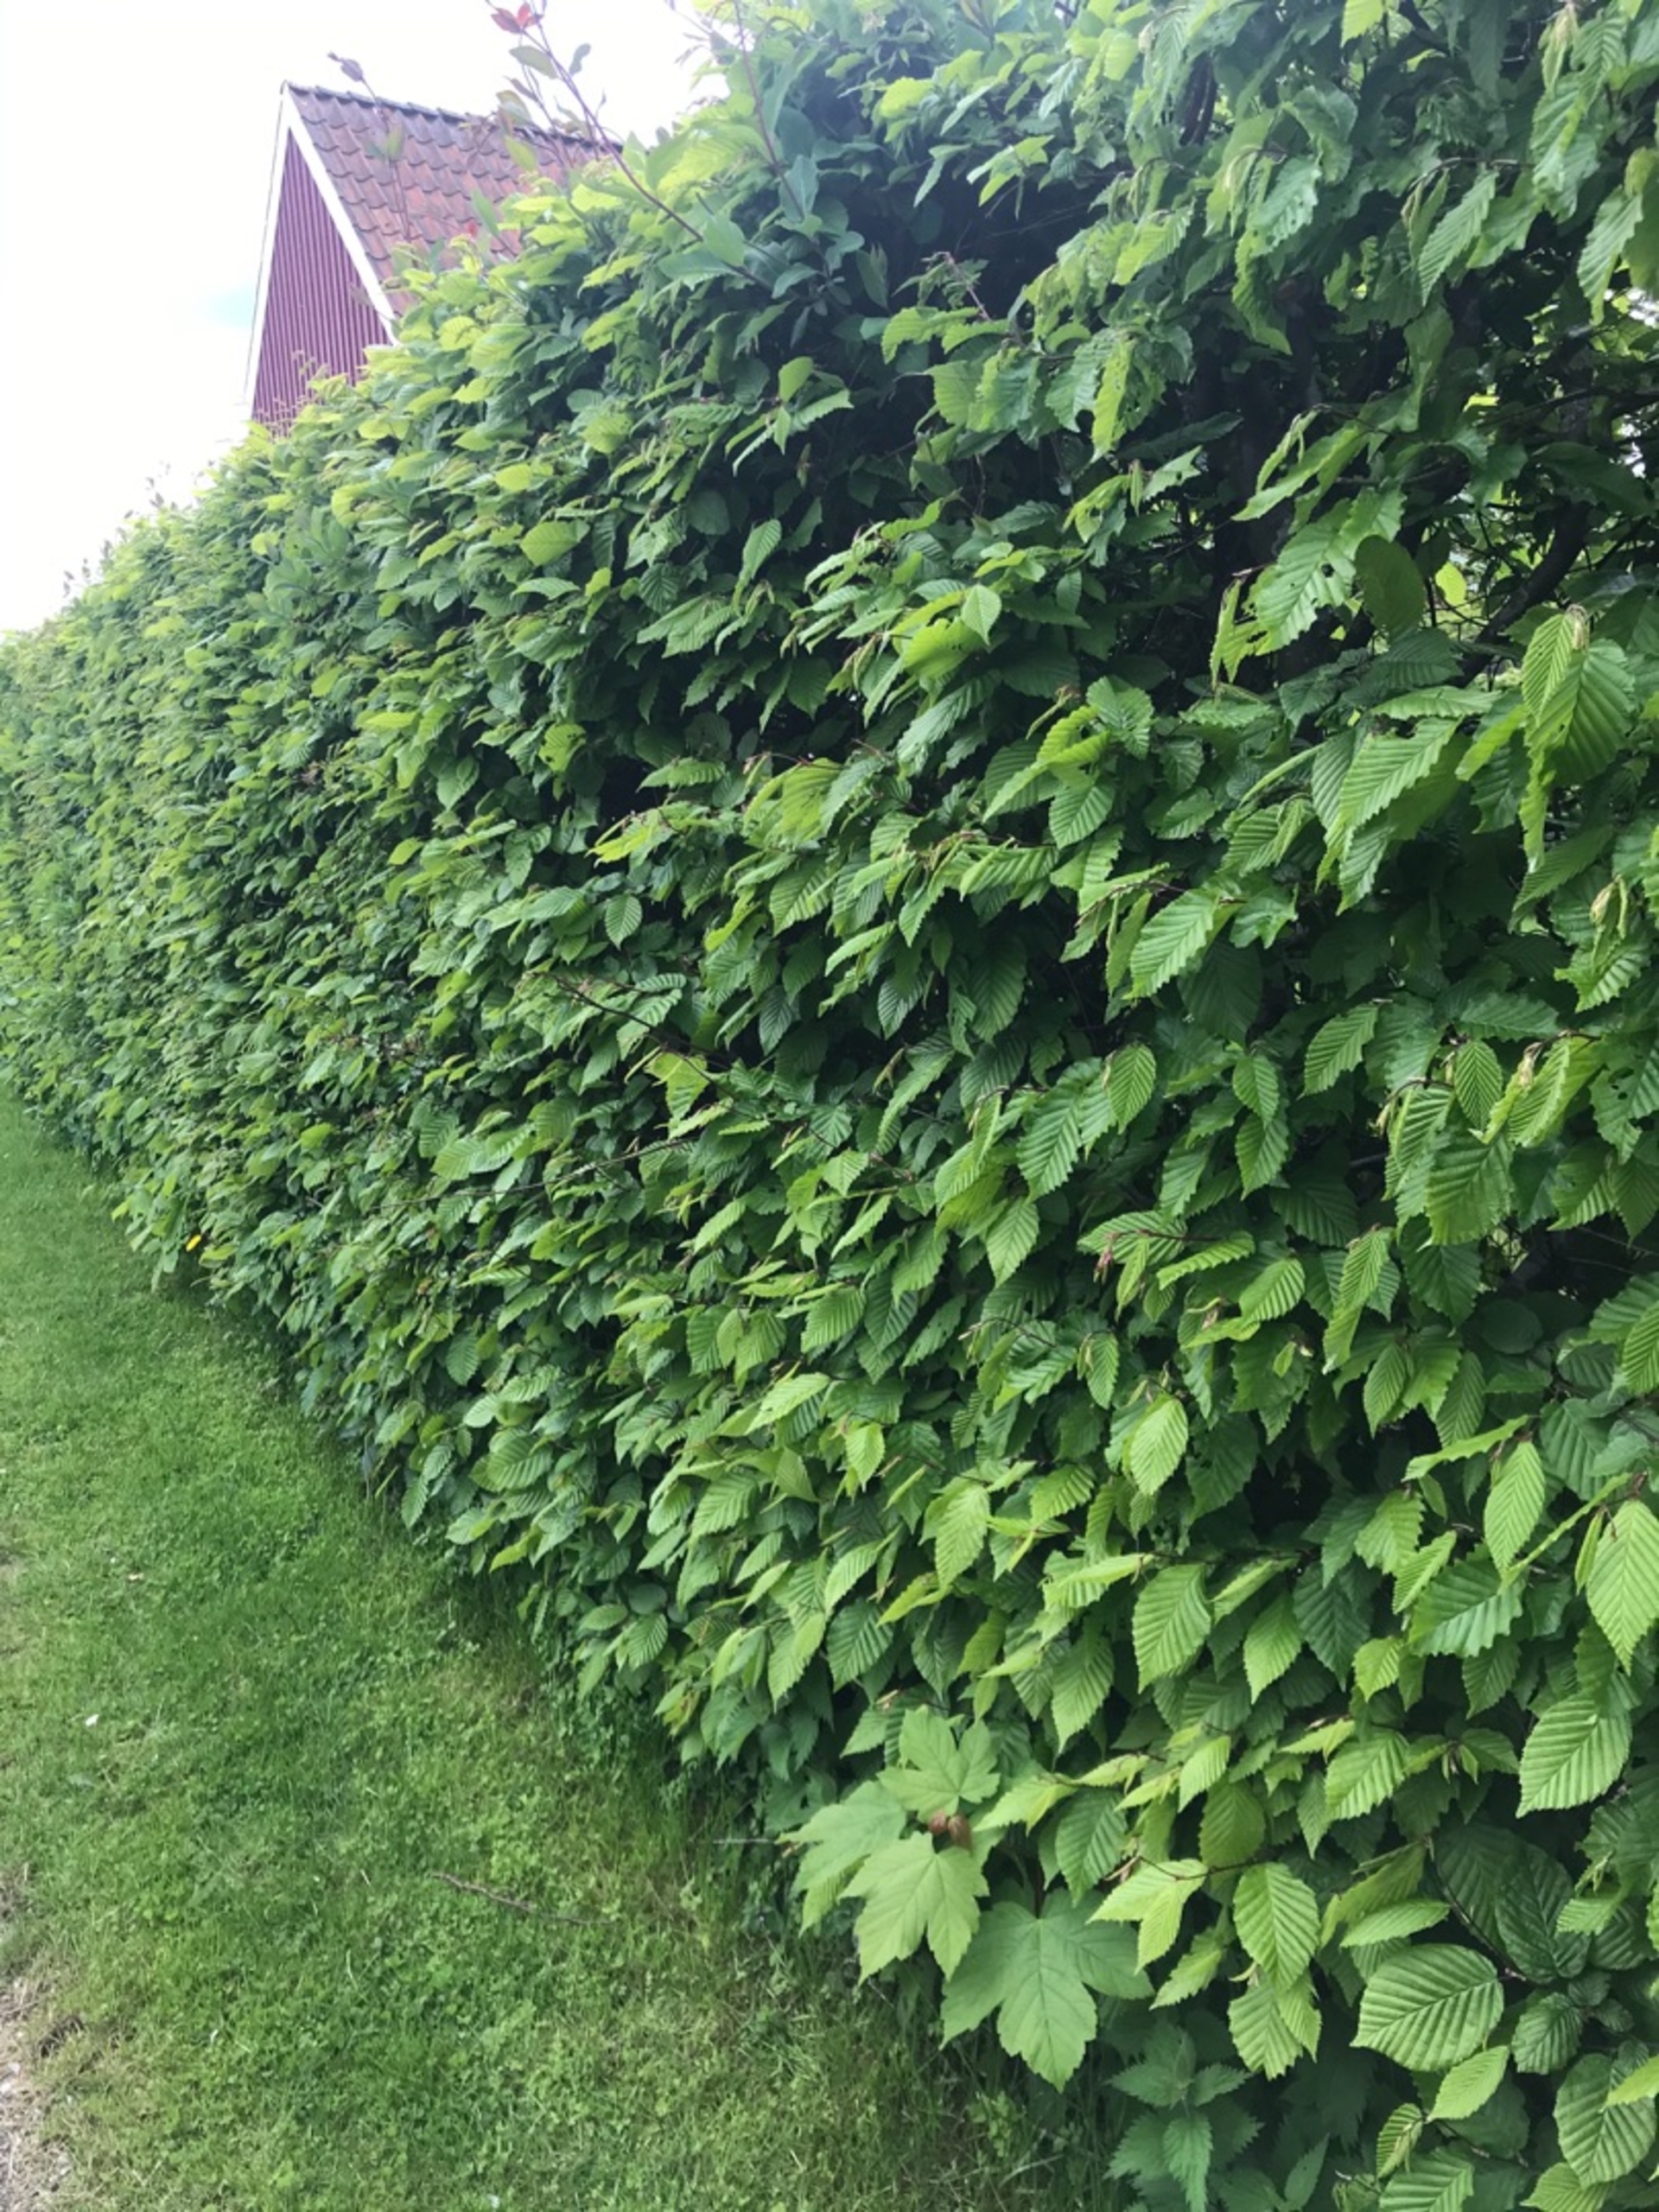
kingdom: Plantae
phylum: Tracheophyta
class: Magnoliopsida
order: Fagales
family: Betulaceae
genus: Carpinus
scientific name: Carpinus betulus
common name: Avnbøg
